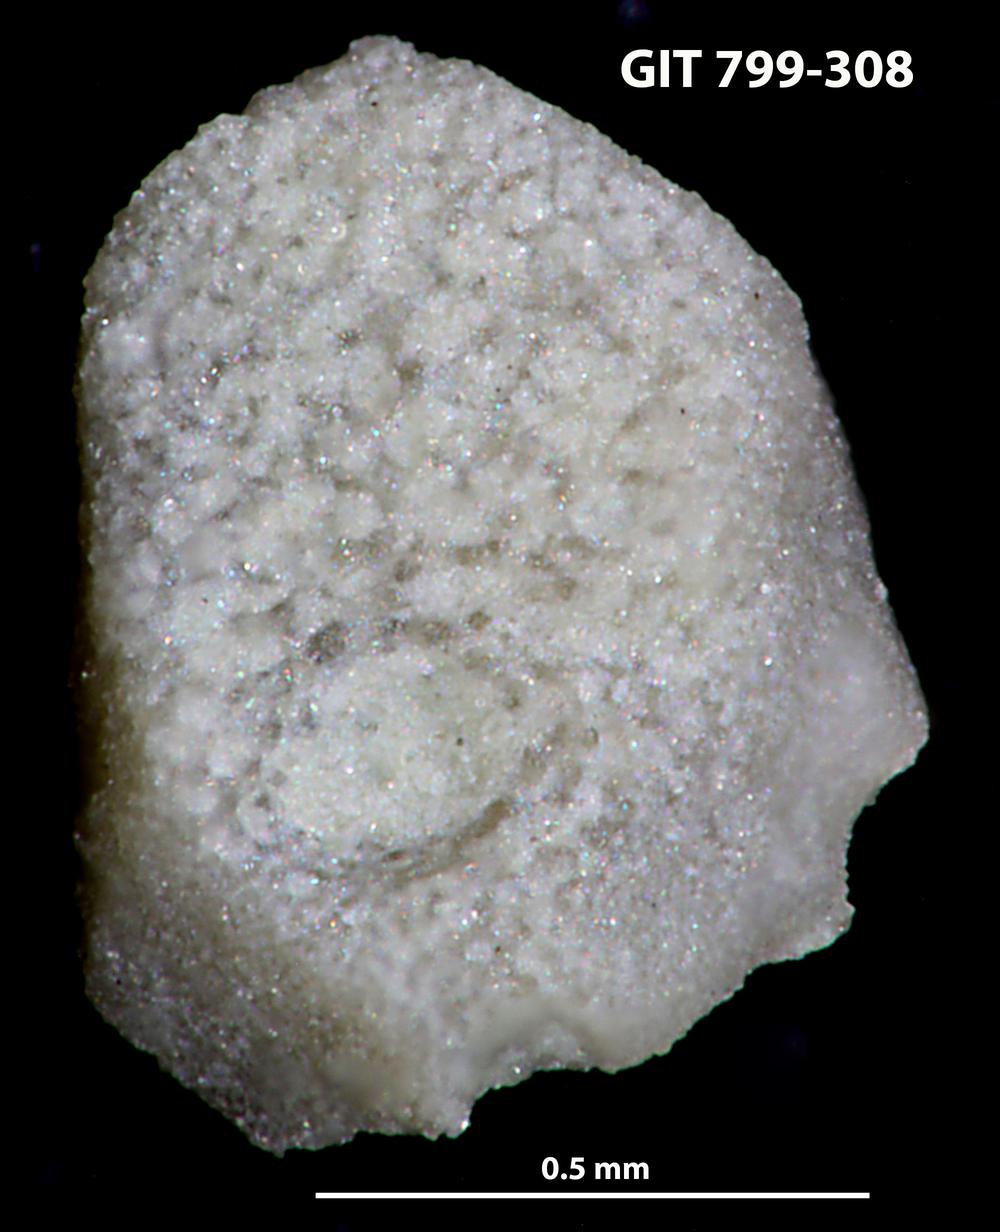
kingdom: Animalia
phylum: Echinodermata
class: Echinoidea
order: Bothriocidaroida
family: Bothriocidaridae
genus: Neobothriocidaris
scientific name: Neobothriocidaris
